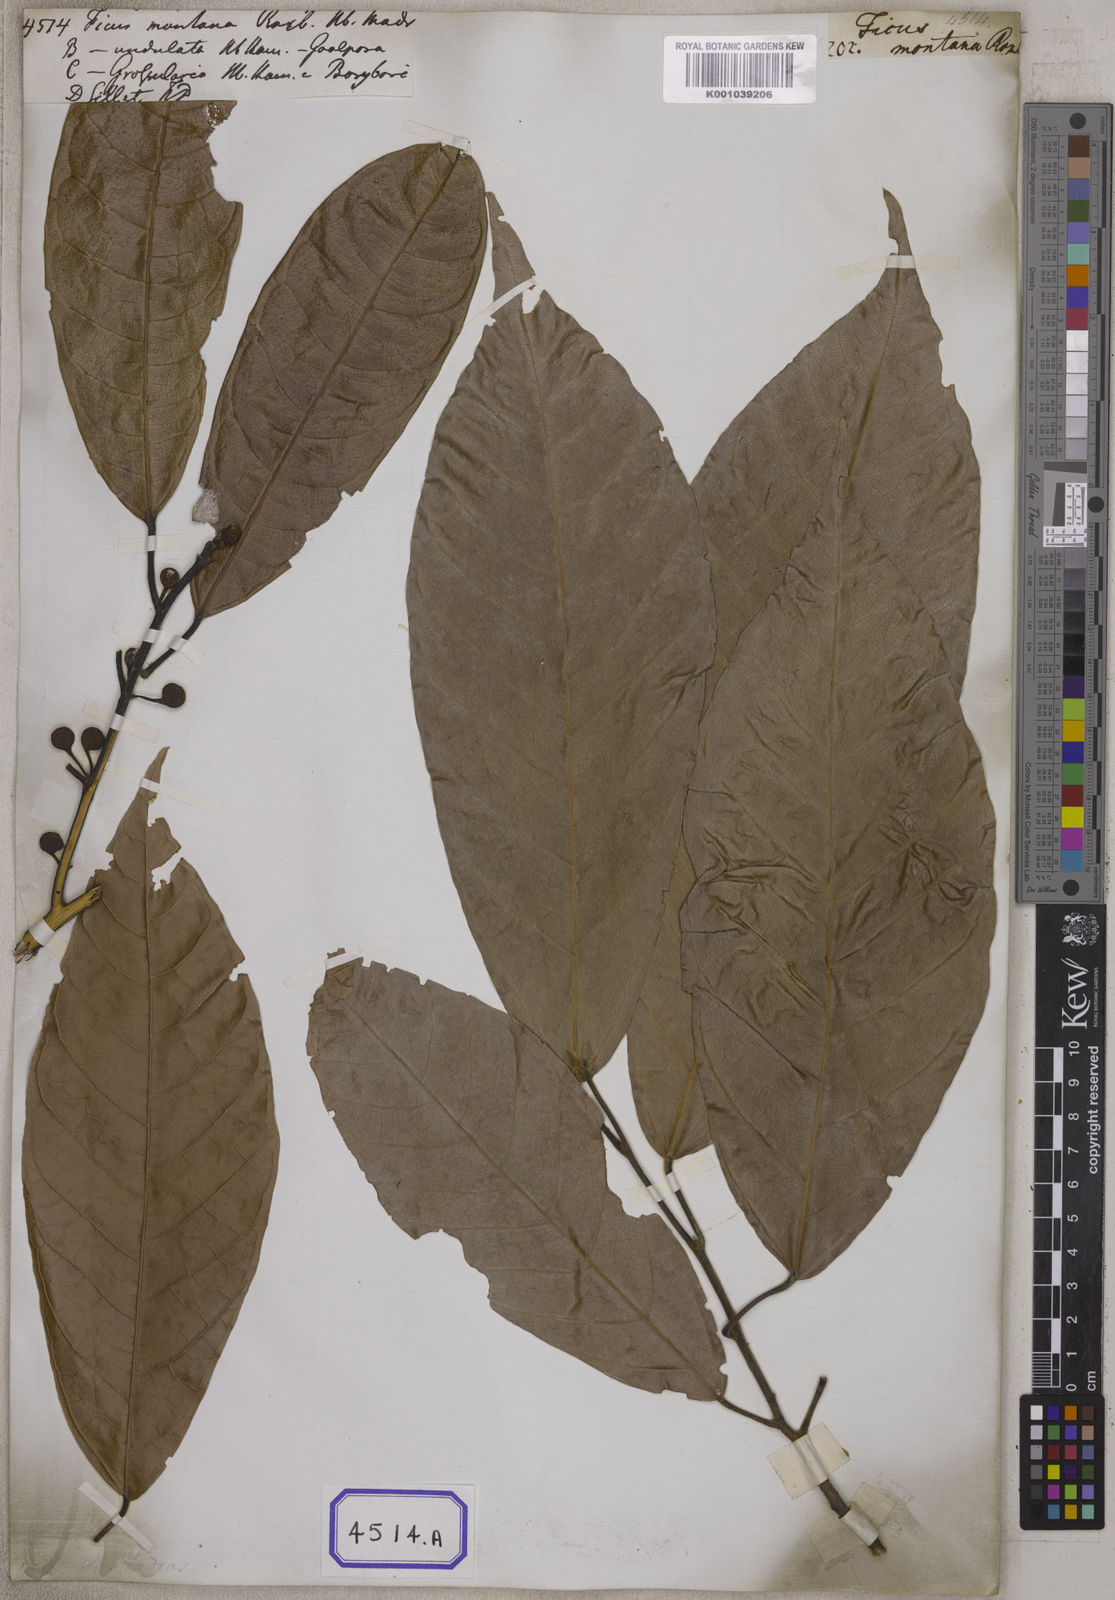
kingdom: Plantae
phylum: Tracheophyta
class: Magnoliopsida
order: Rosales
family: Moraceae
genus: Ficus
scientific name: Ficus
